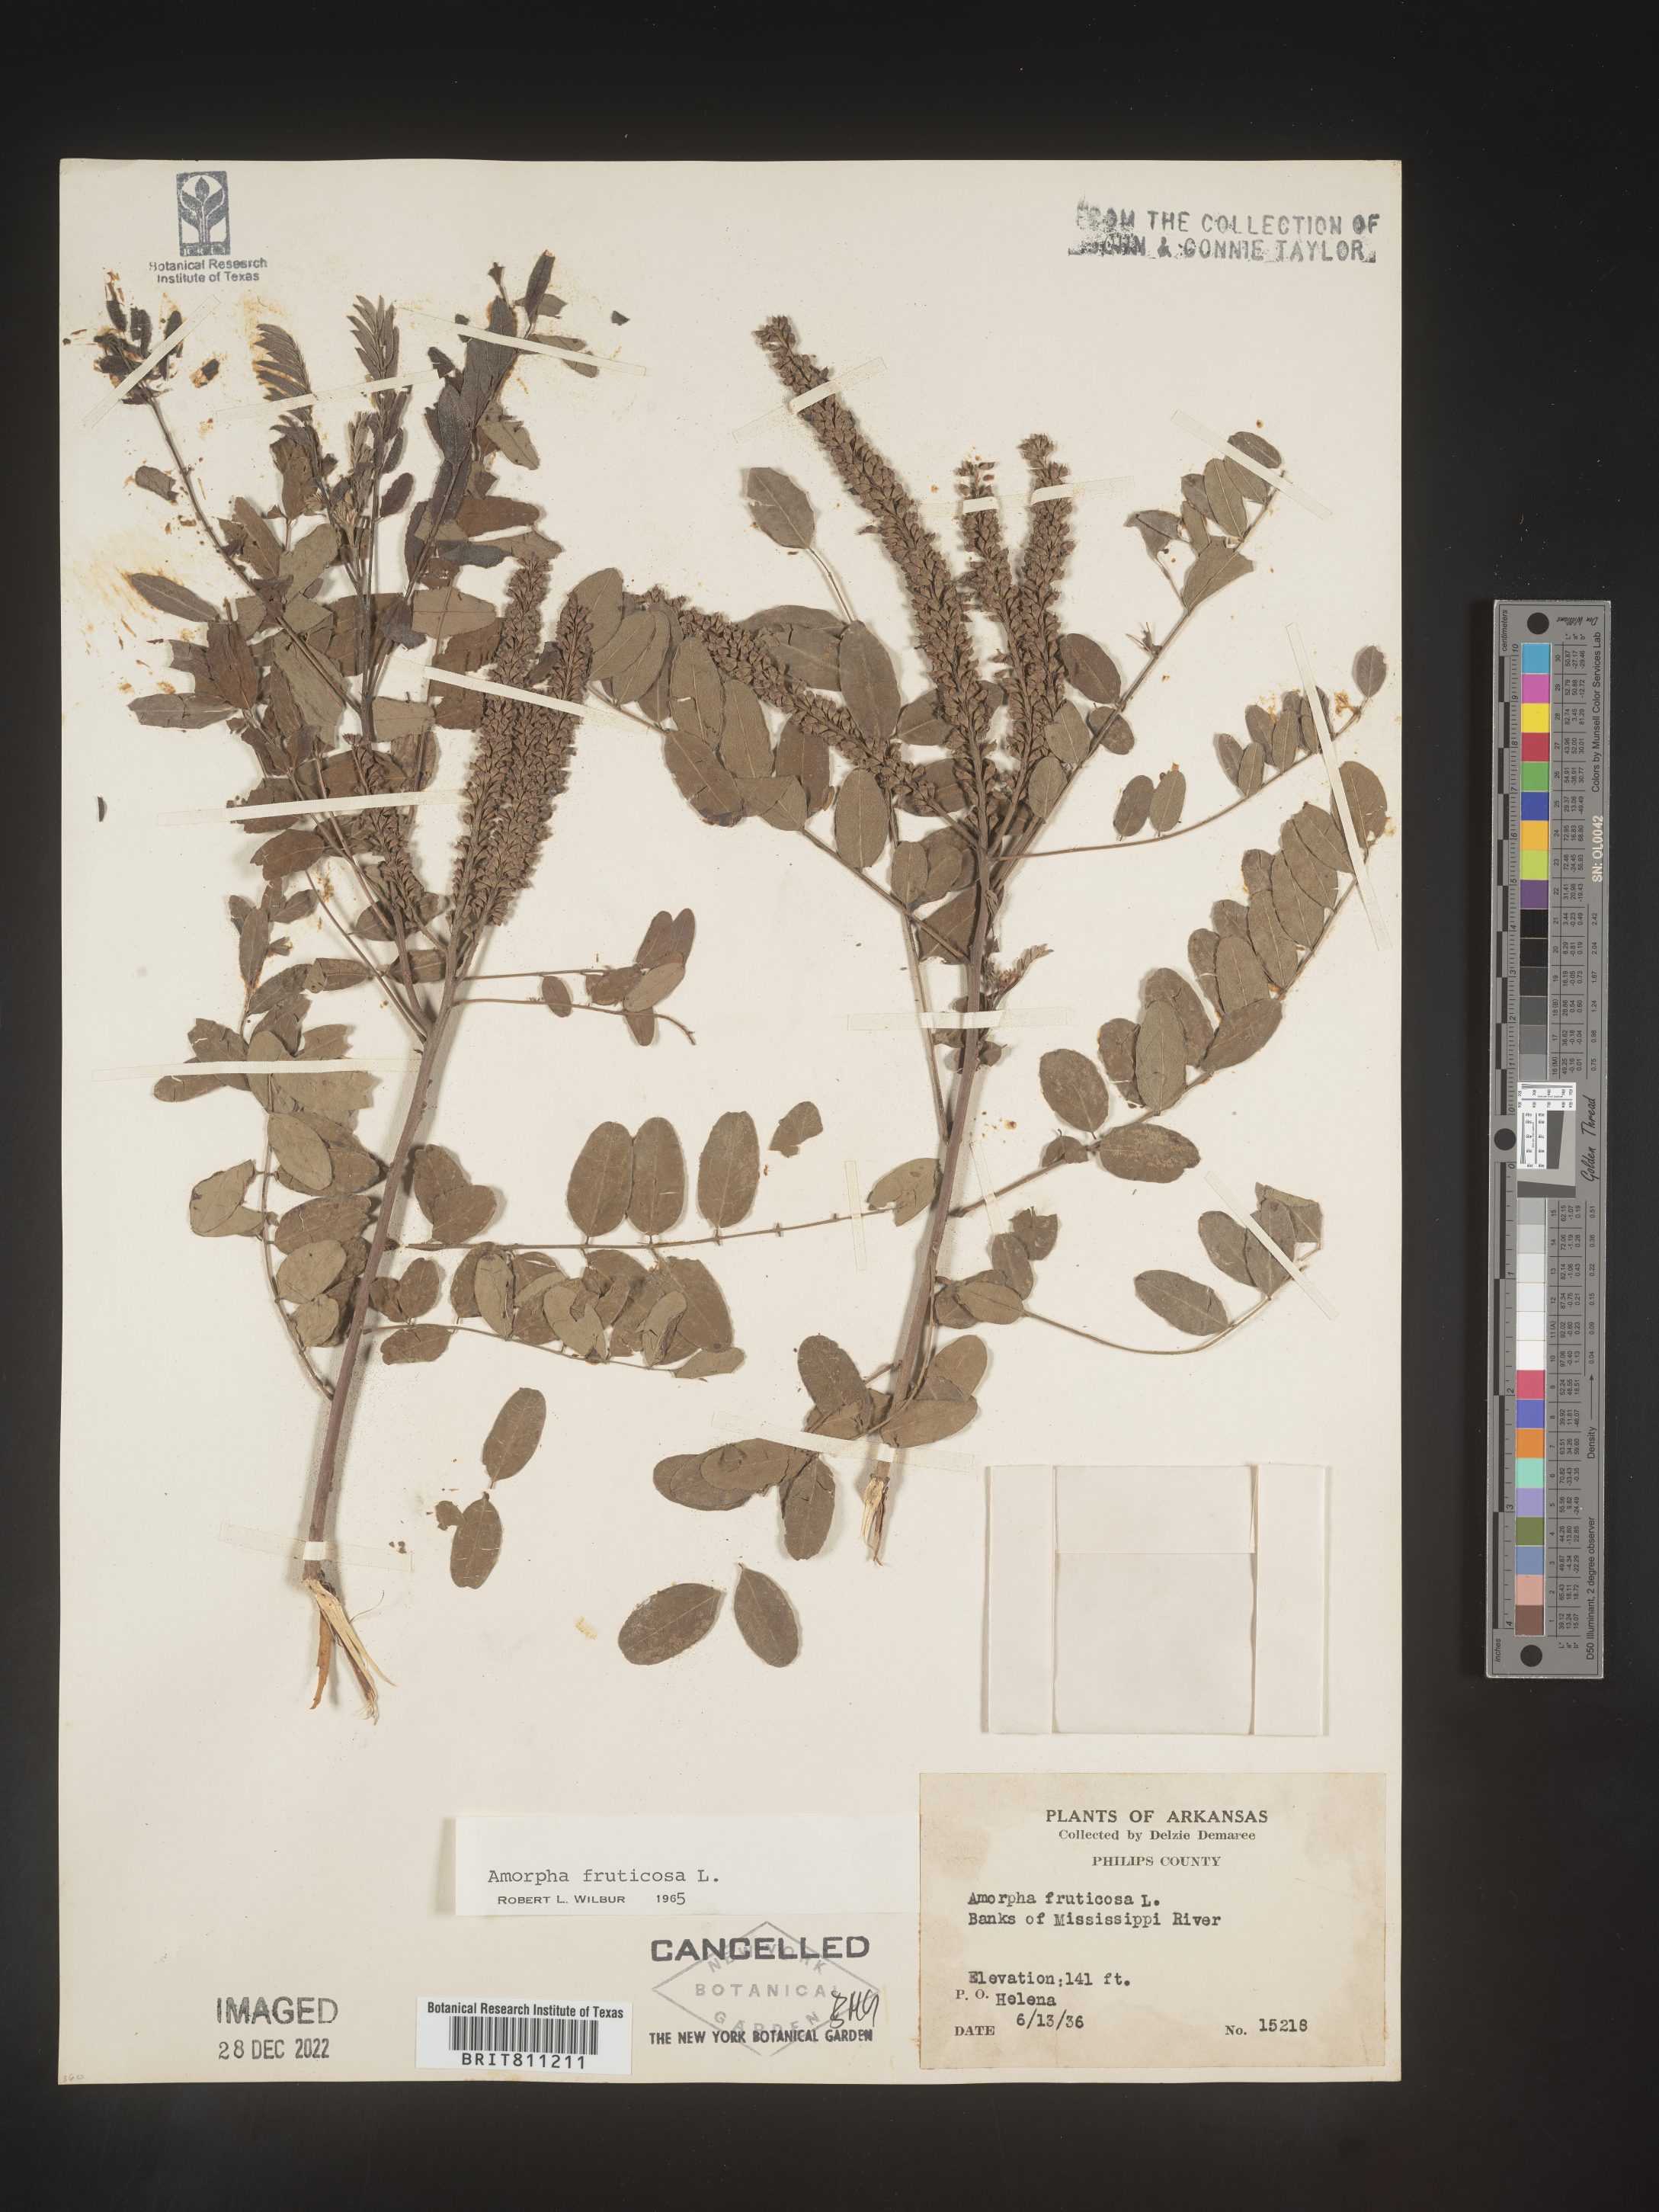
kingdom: Plantae
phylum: Tracheophyta
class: Magnoliopsida
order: Fabales
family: Fabaceae
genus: Amorpha
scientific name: Amorpha fruticosa
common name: False indigo
